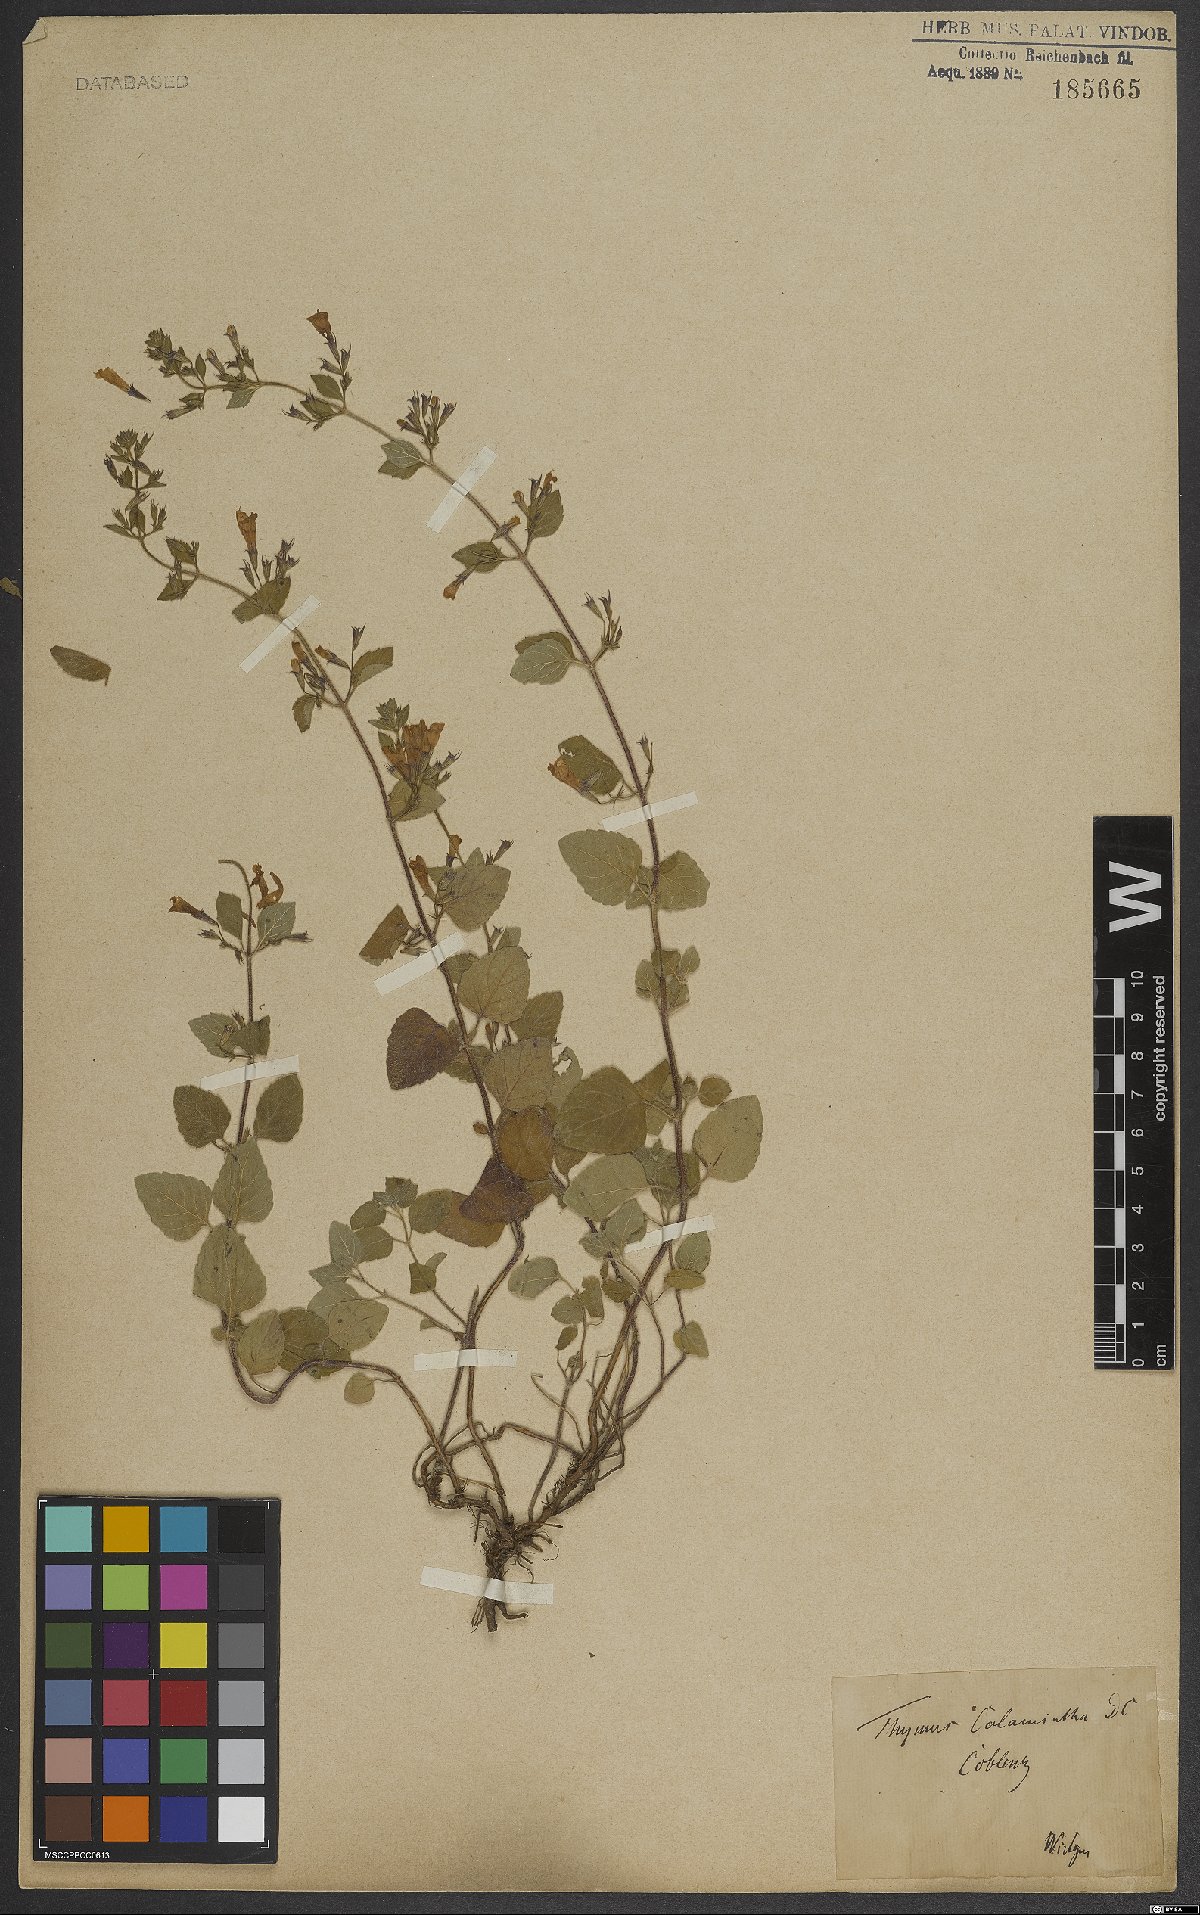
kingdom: Plantae
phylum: Tracheophyta
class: Magnoliopsida
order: Lamiales
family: Lamiaceae
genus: Thymus
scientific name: Thymus
